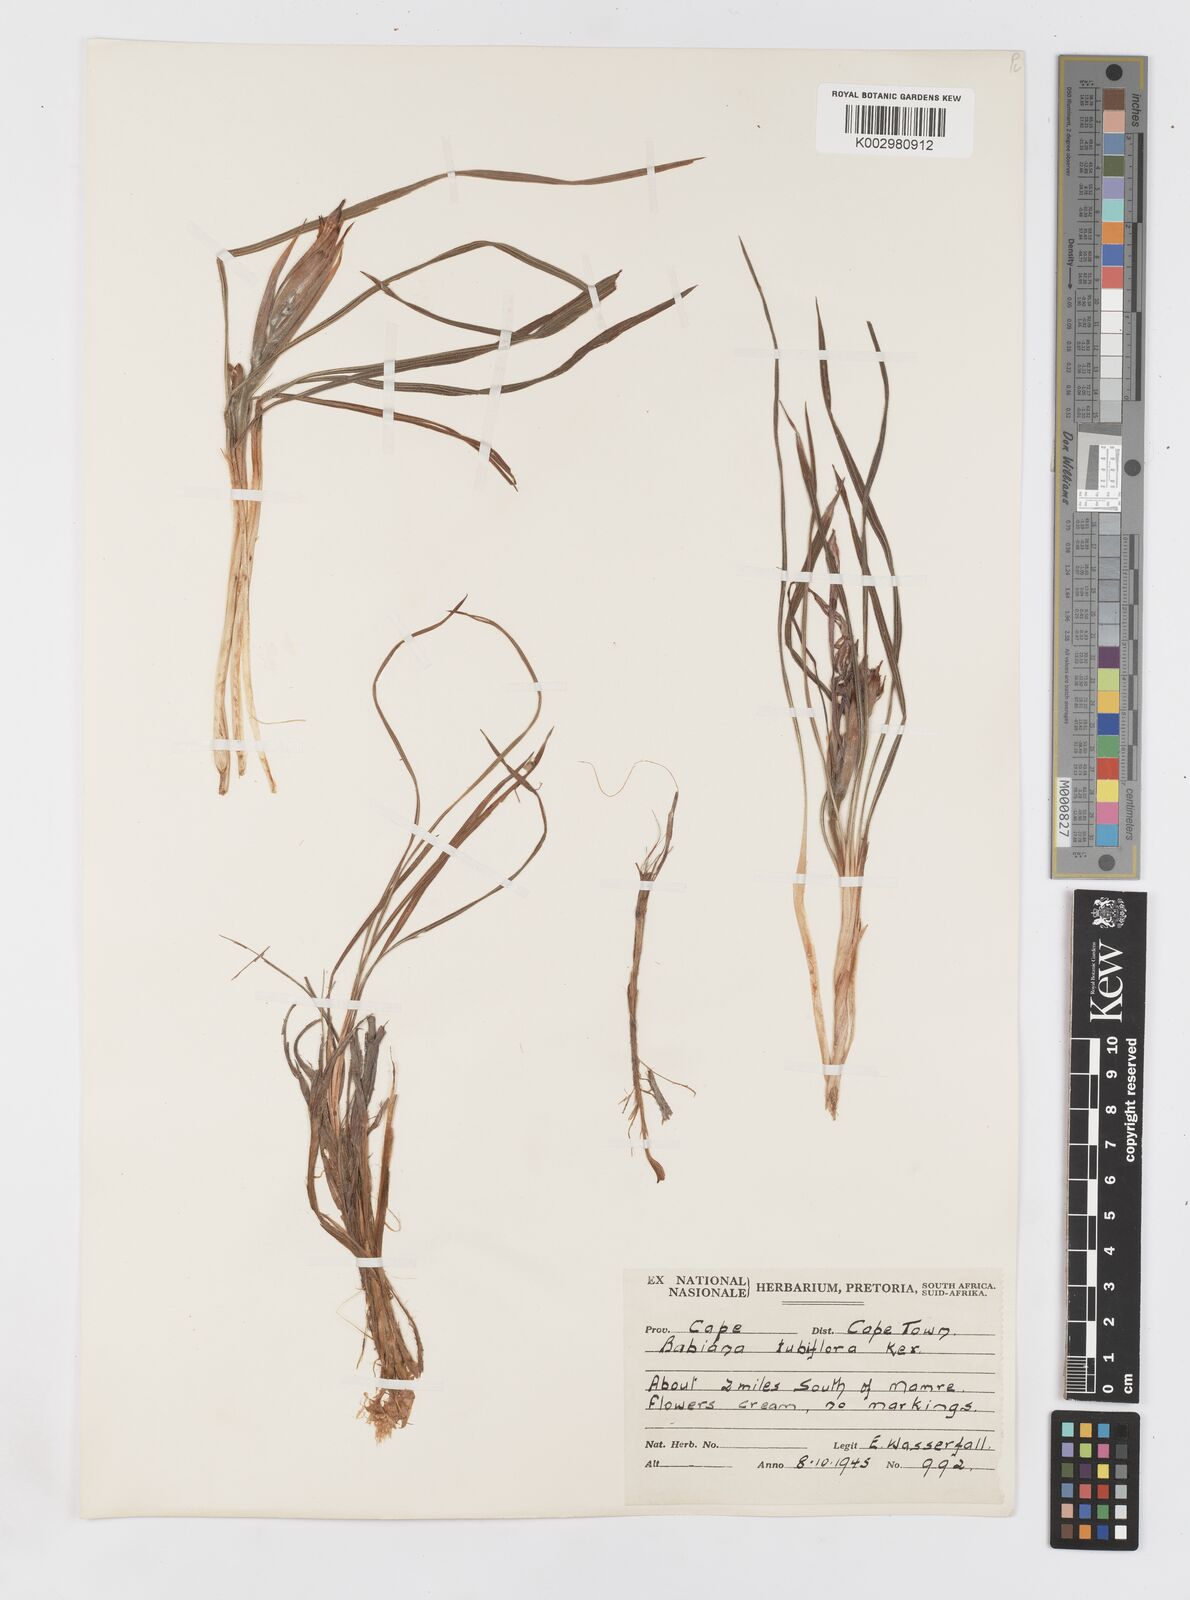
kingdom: Plantae
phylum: Tracheophyta
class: Liliopsida
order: Asparagales
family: Iridaceae
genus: Babiana
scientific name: Babiana tubiflora
